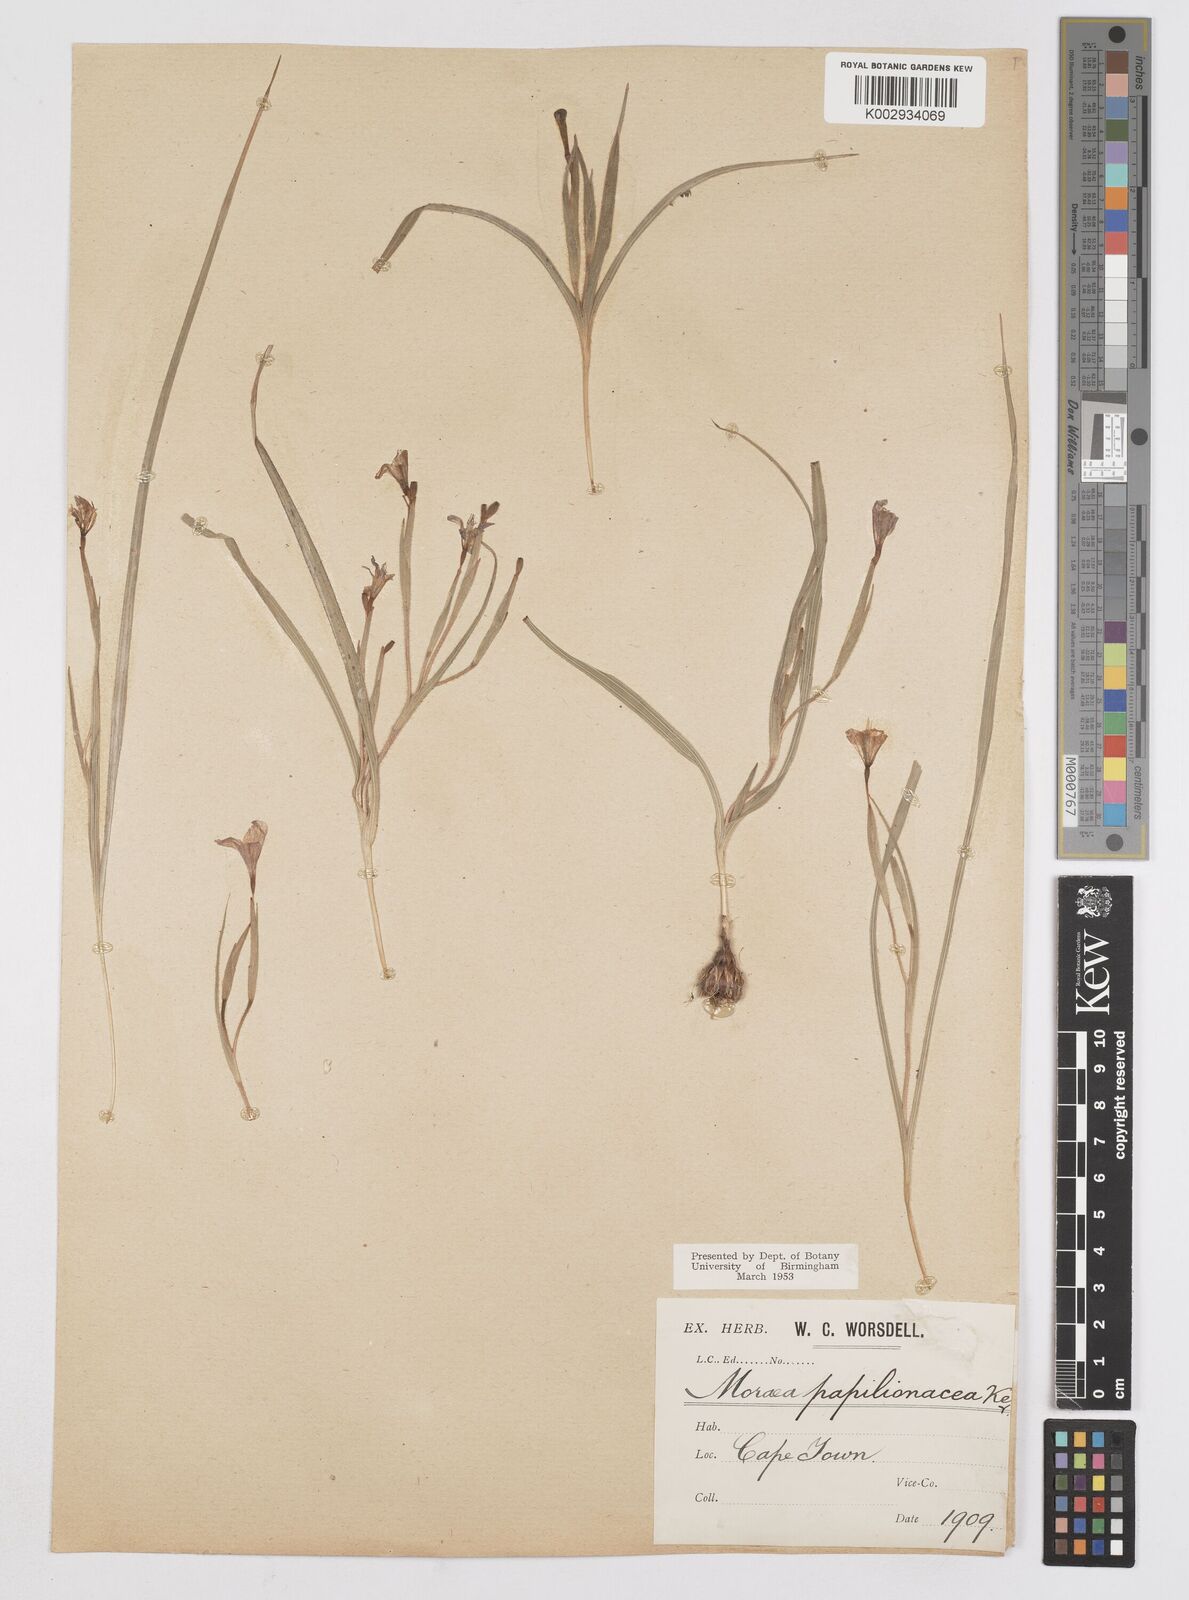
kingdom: Plantae
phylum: Tracheophyta
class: Liliopsida
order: Asparagales
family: Iridaceae
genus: Moraea
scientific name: Moraea papilionacea
